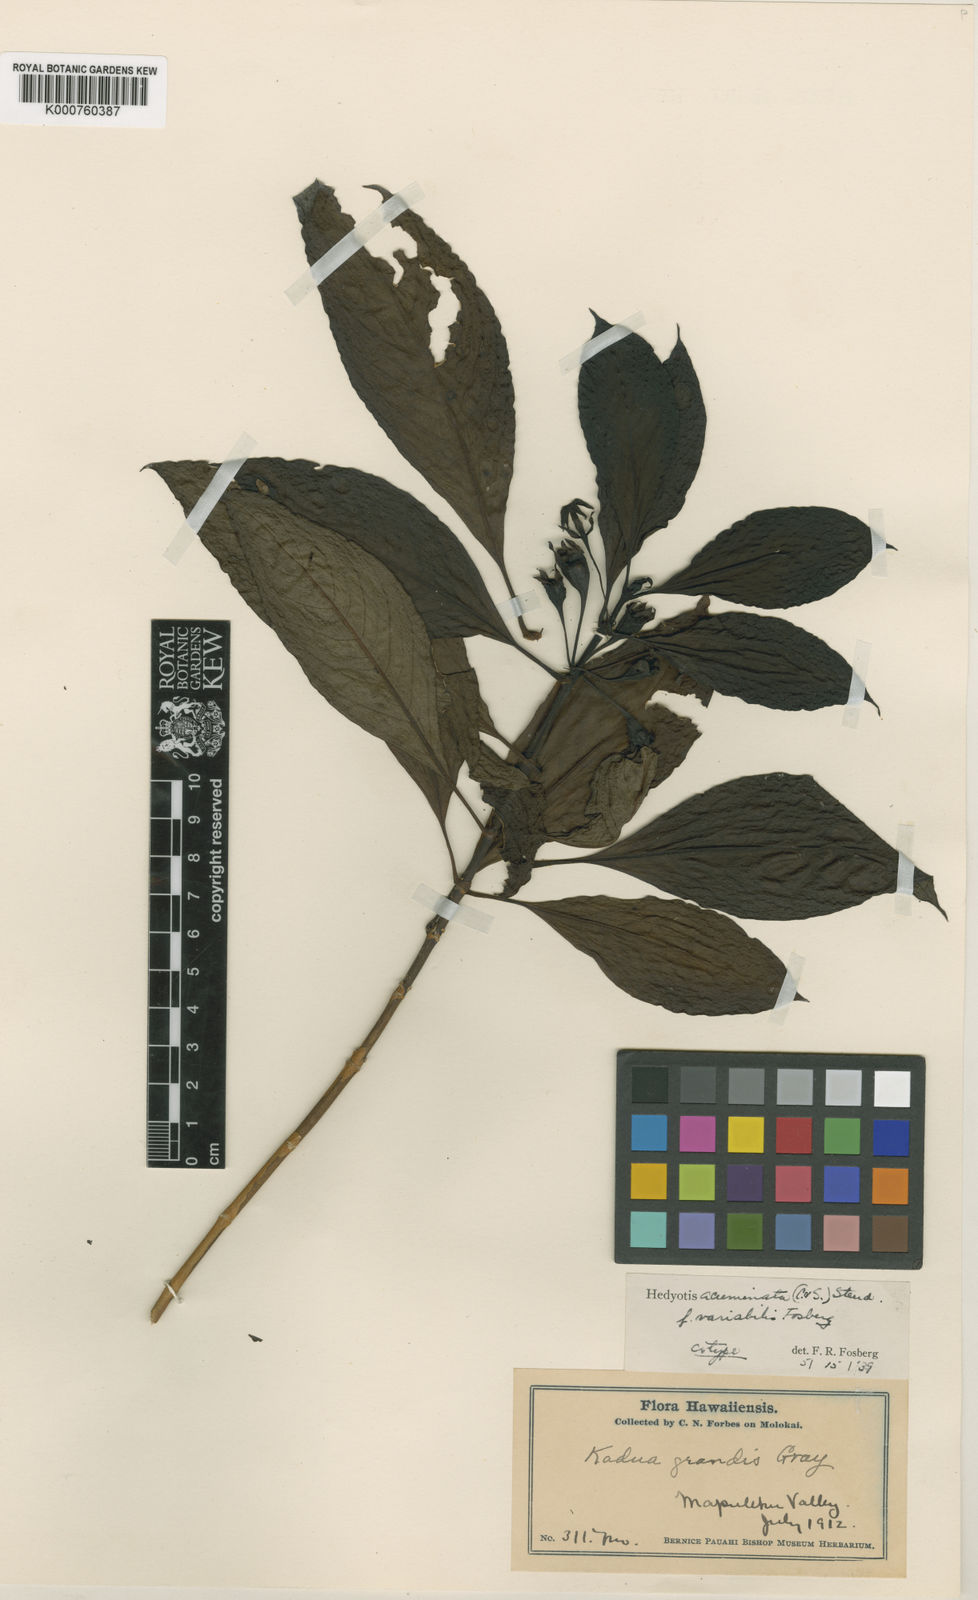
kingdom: Plantae
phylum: Tracheophyta
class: Magnoliopsida
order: Gentianales
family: Rubiaceae
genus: Kadua
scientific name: Kadua acuminata
